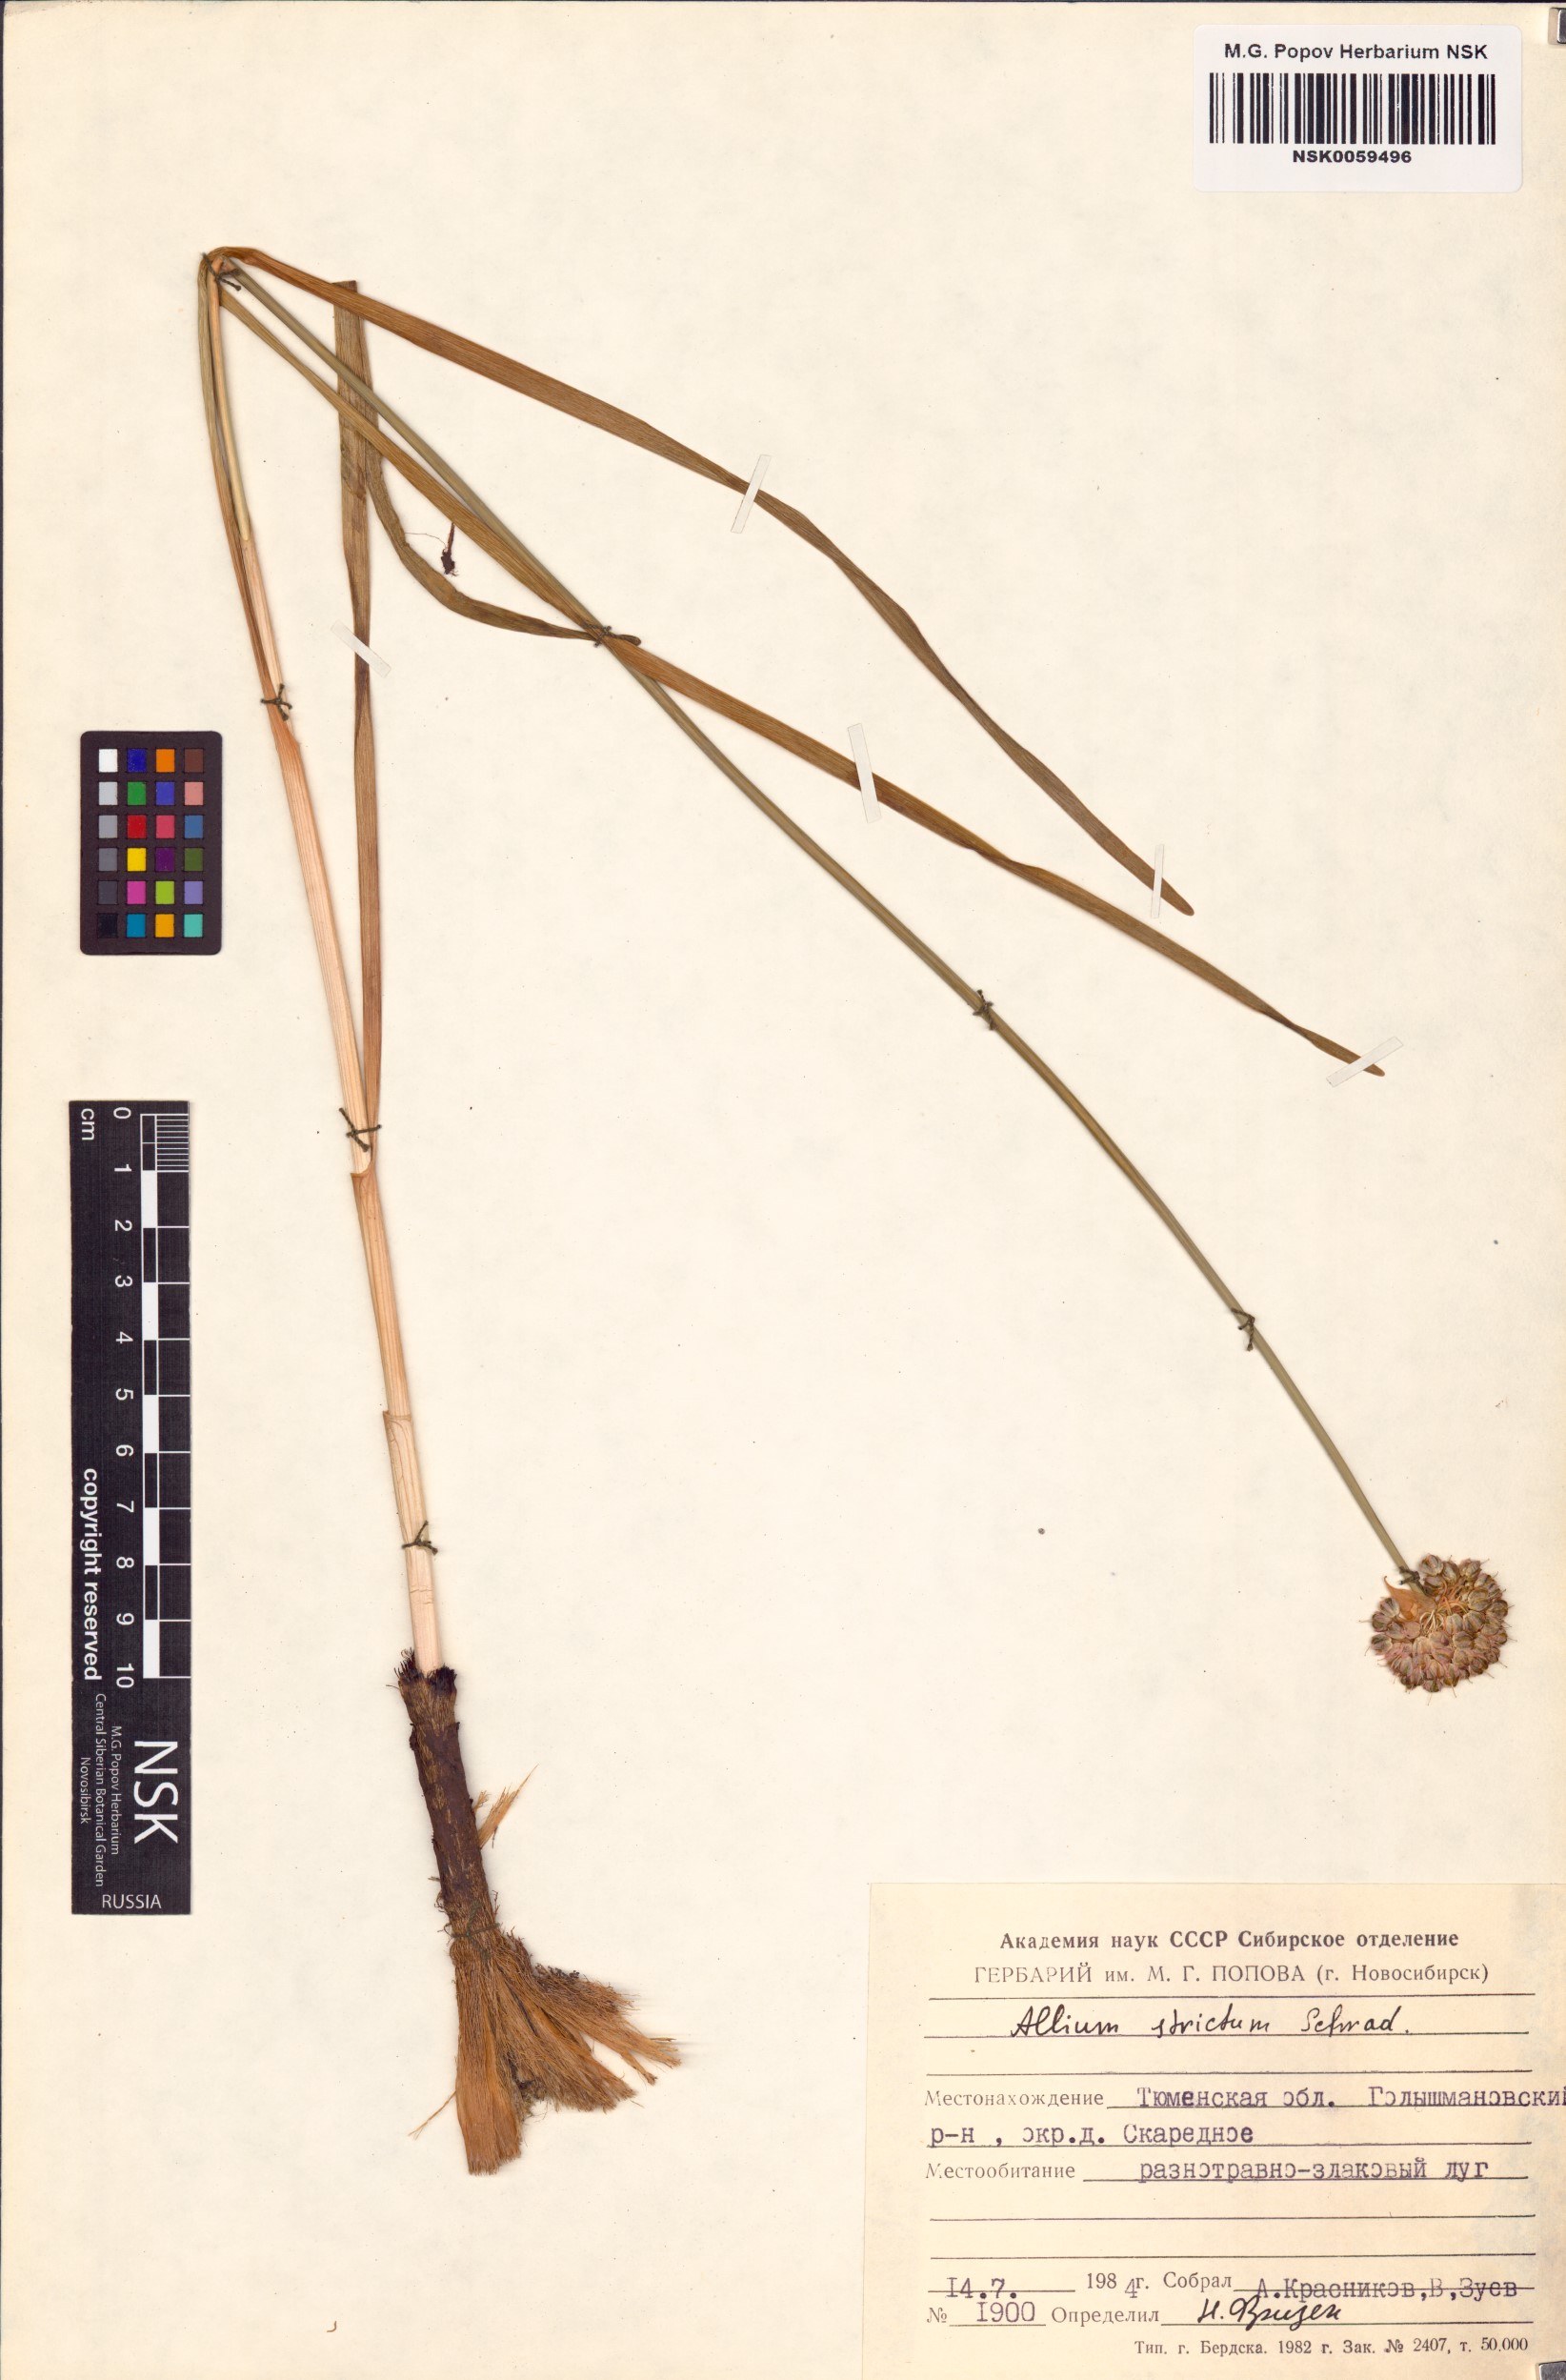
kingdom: Plantae
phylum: Tracheophyta
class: Liliopsida
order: Asparagales
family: Amaryllidaceae
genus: Allium
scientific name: Allium strictum
